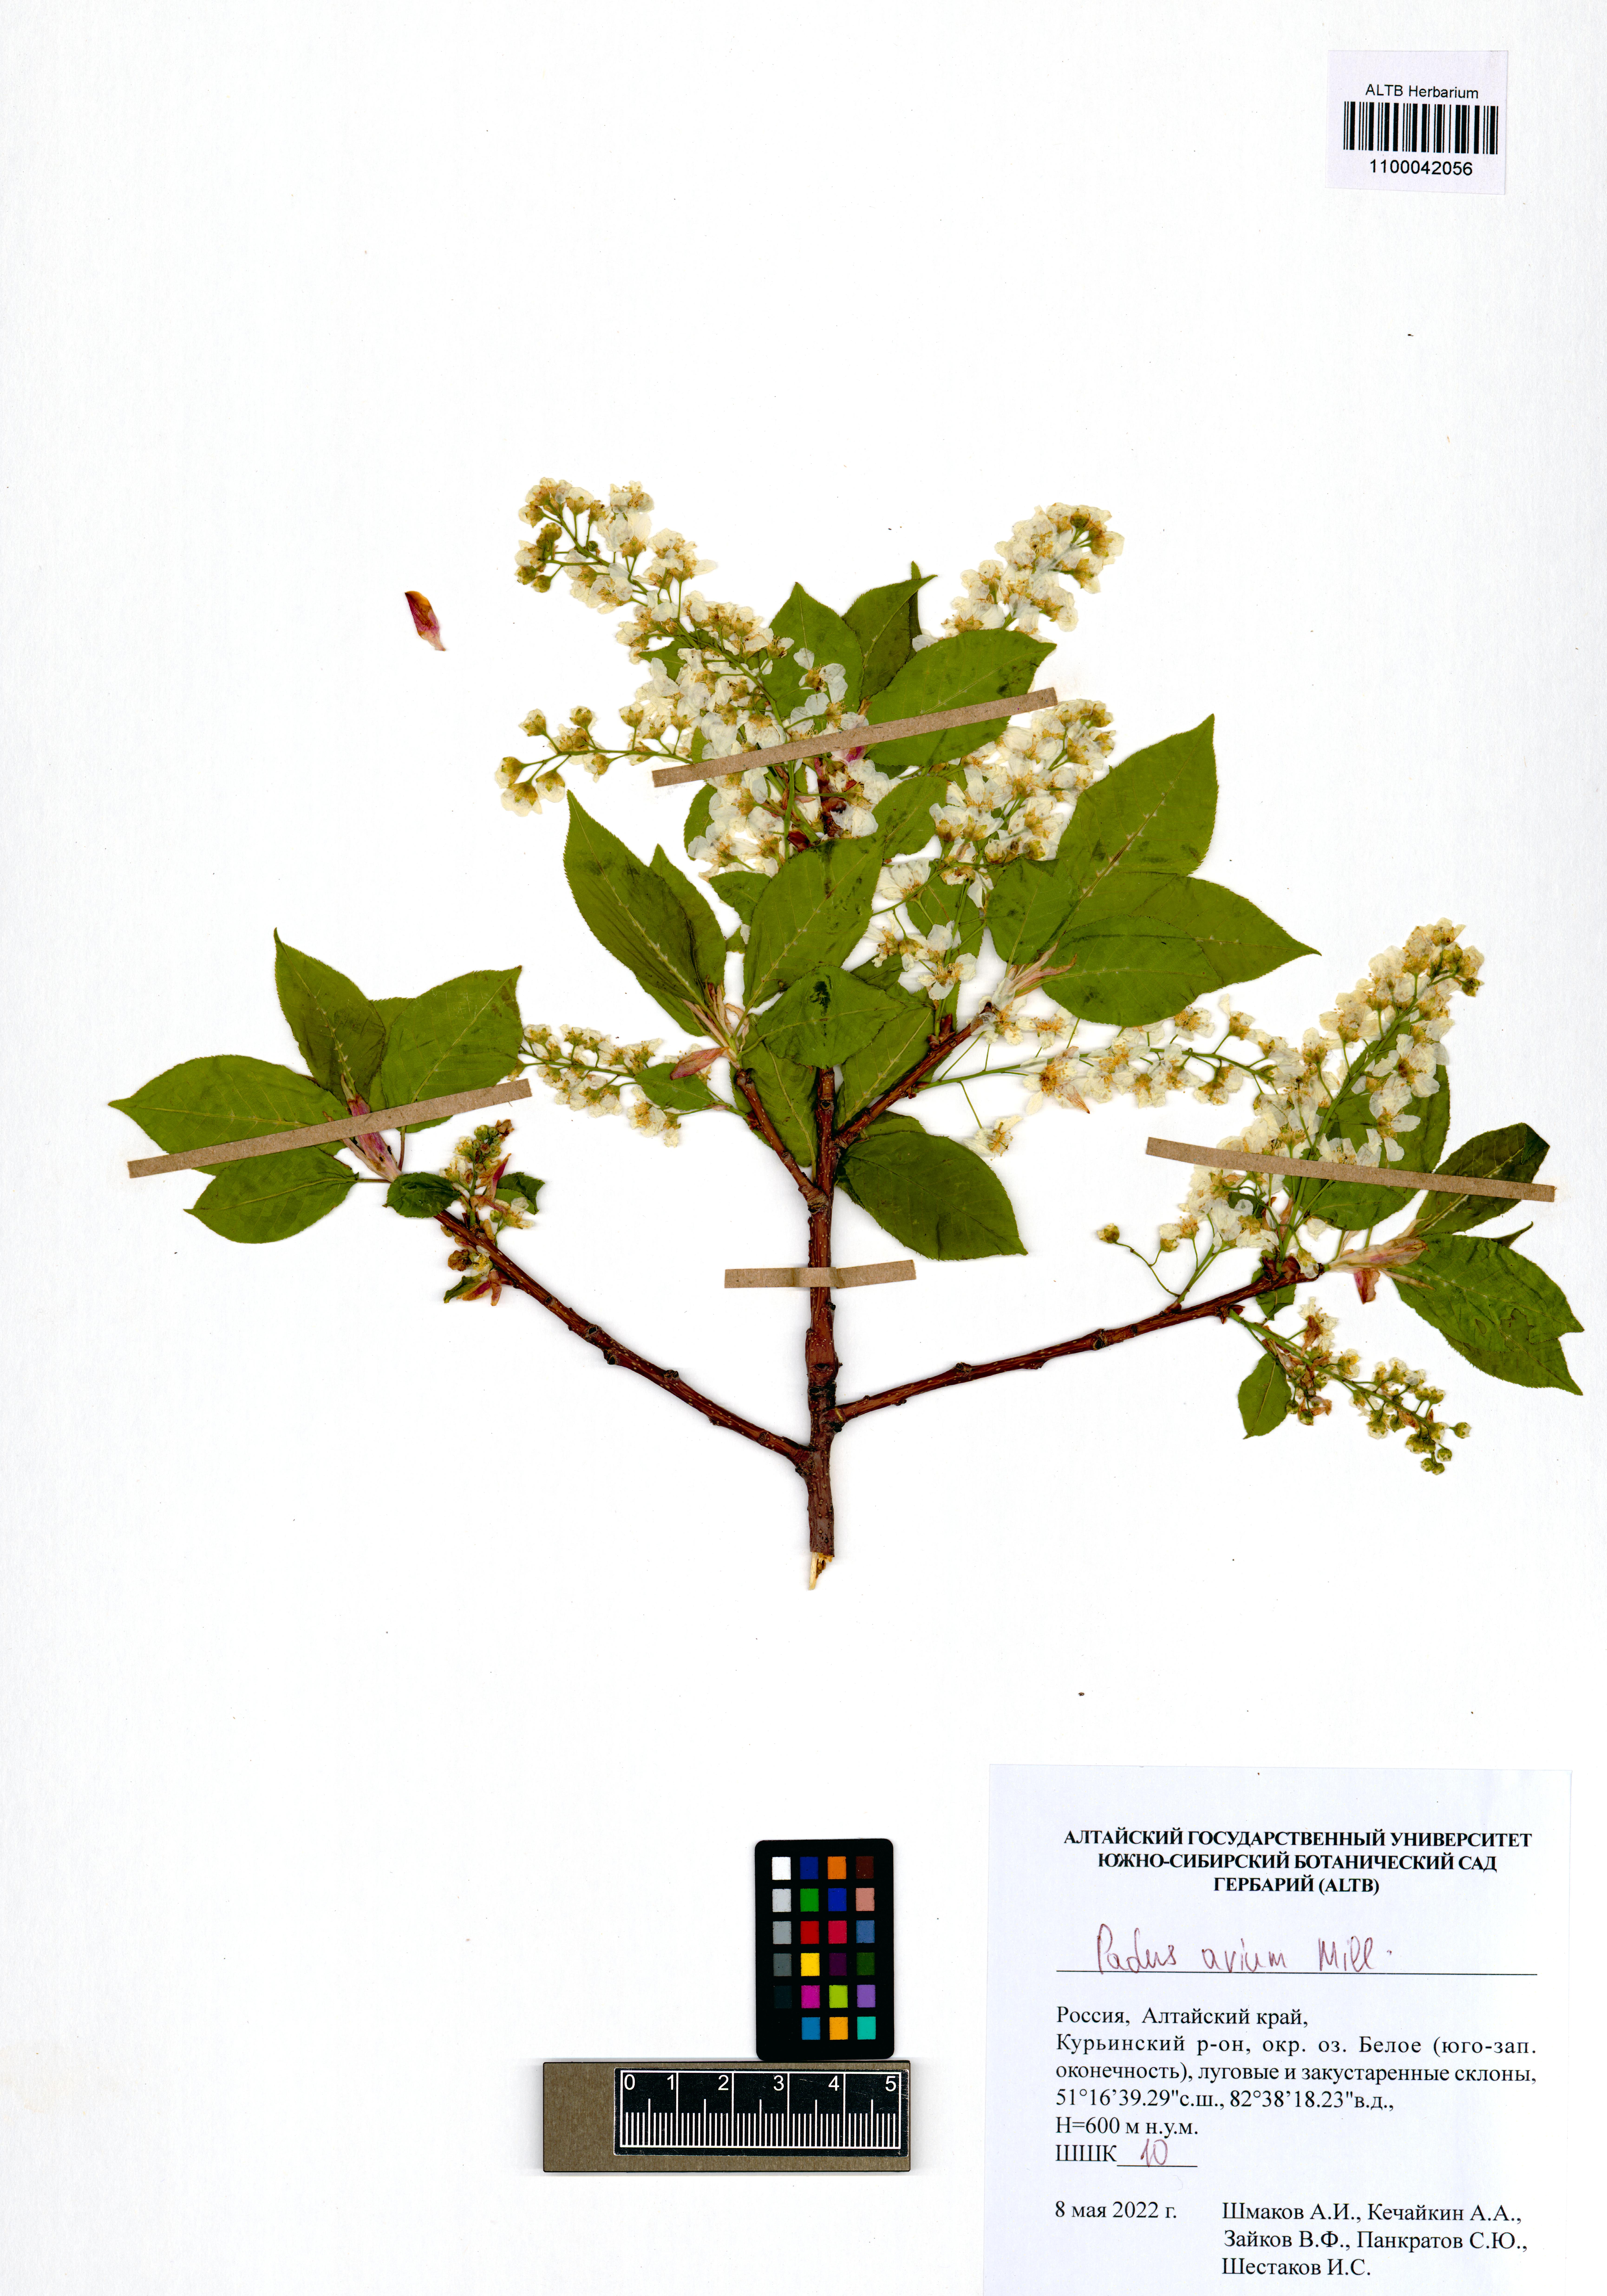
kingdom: Plantae
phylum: Tracheophyta
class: Magnoliopsida
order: Rosales
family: Rosaceae
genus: Prunus
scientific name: Prunus padus
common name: Bird cherry
